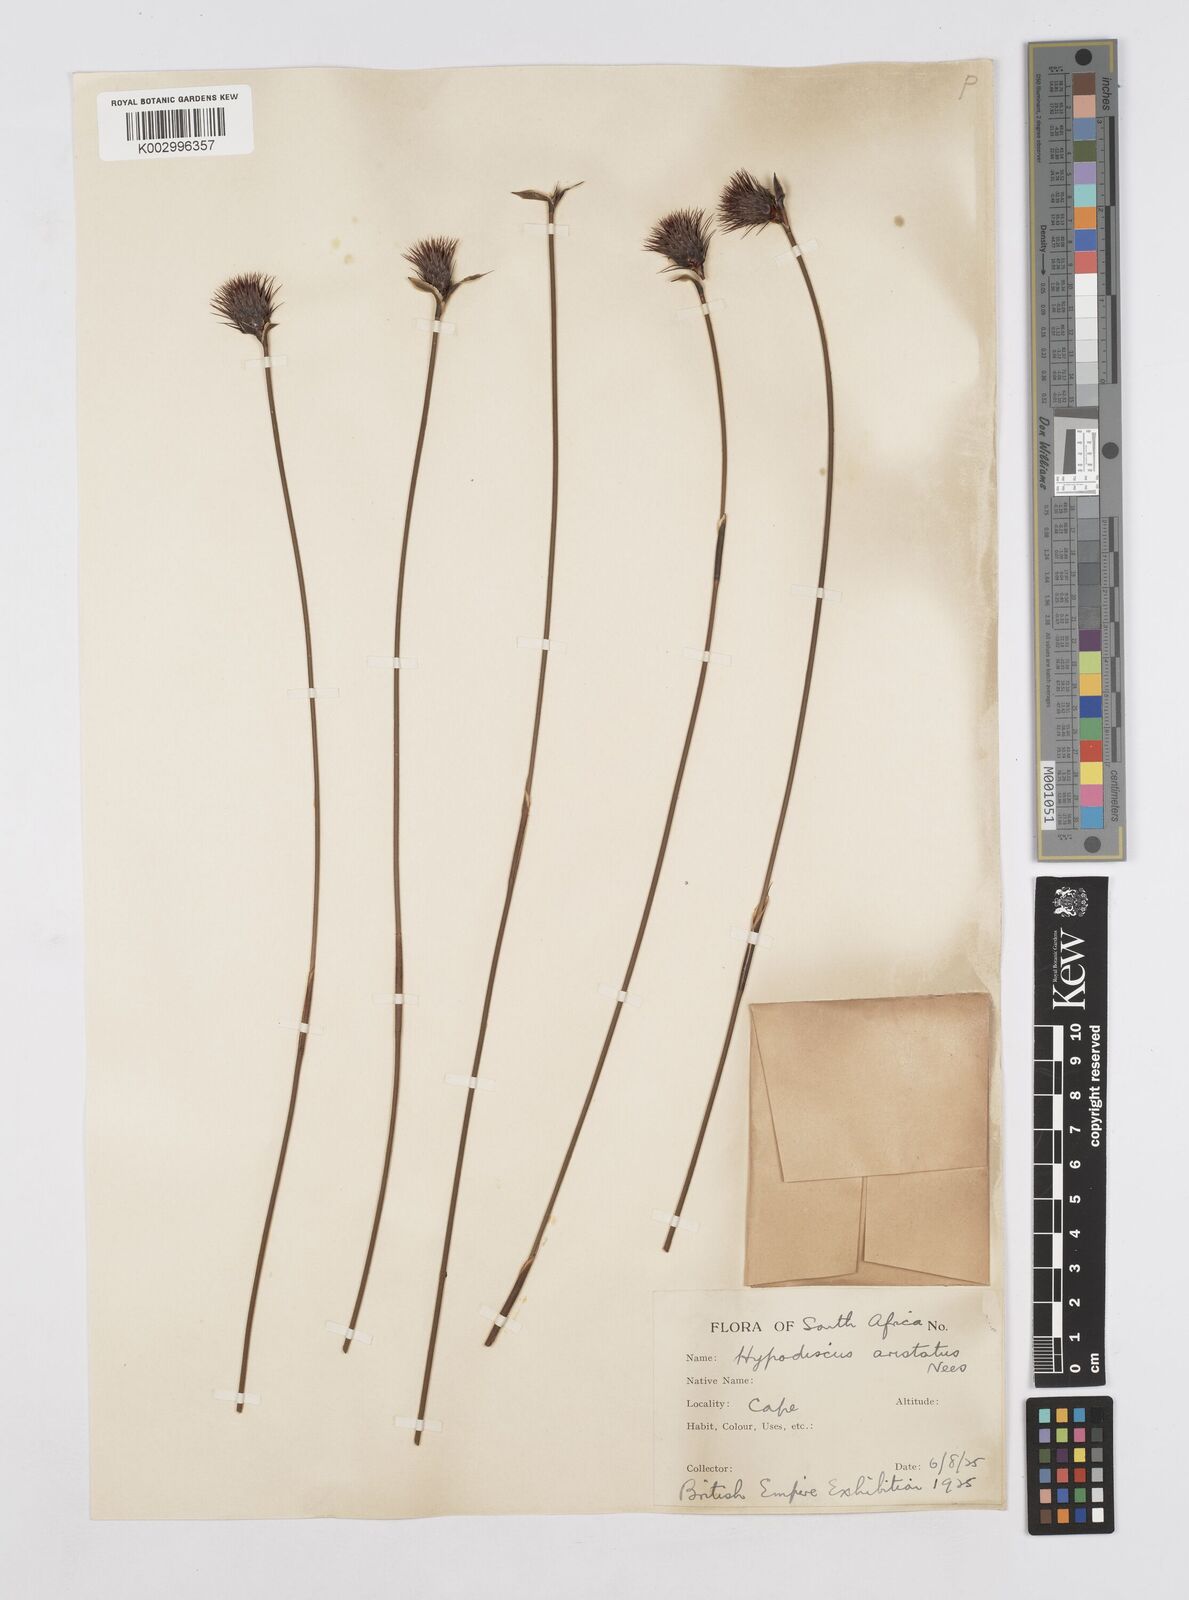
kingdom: Plantae
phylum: Tracheophyta
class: Liliopsida
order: Poales
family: Restionaceae
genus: Hypodiscus
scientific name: Hypodiscus aristatus
